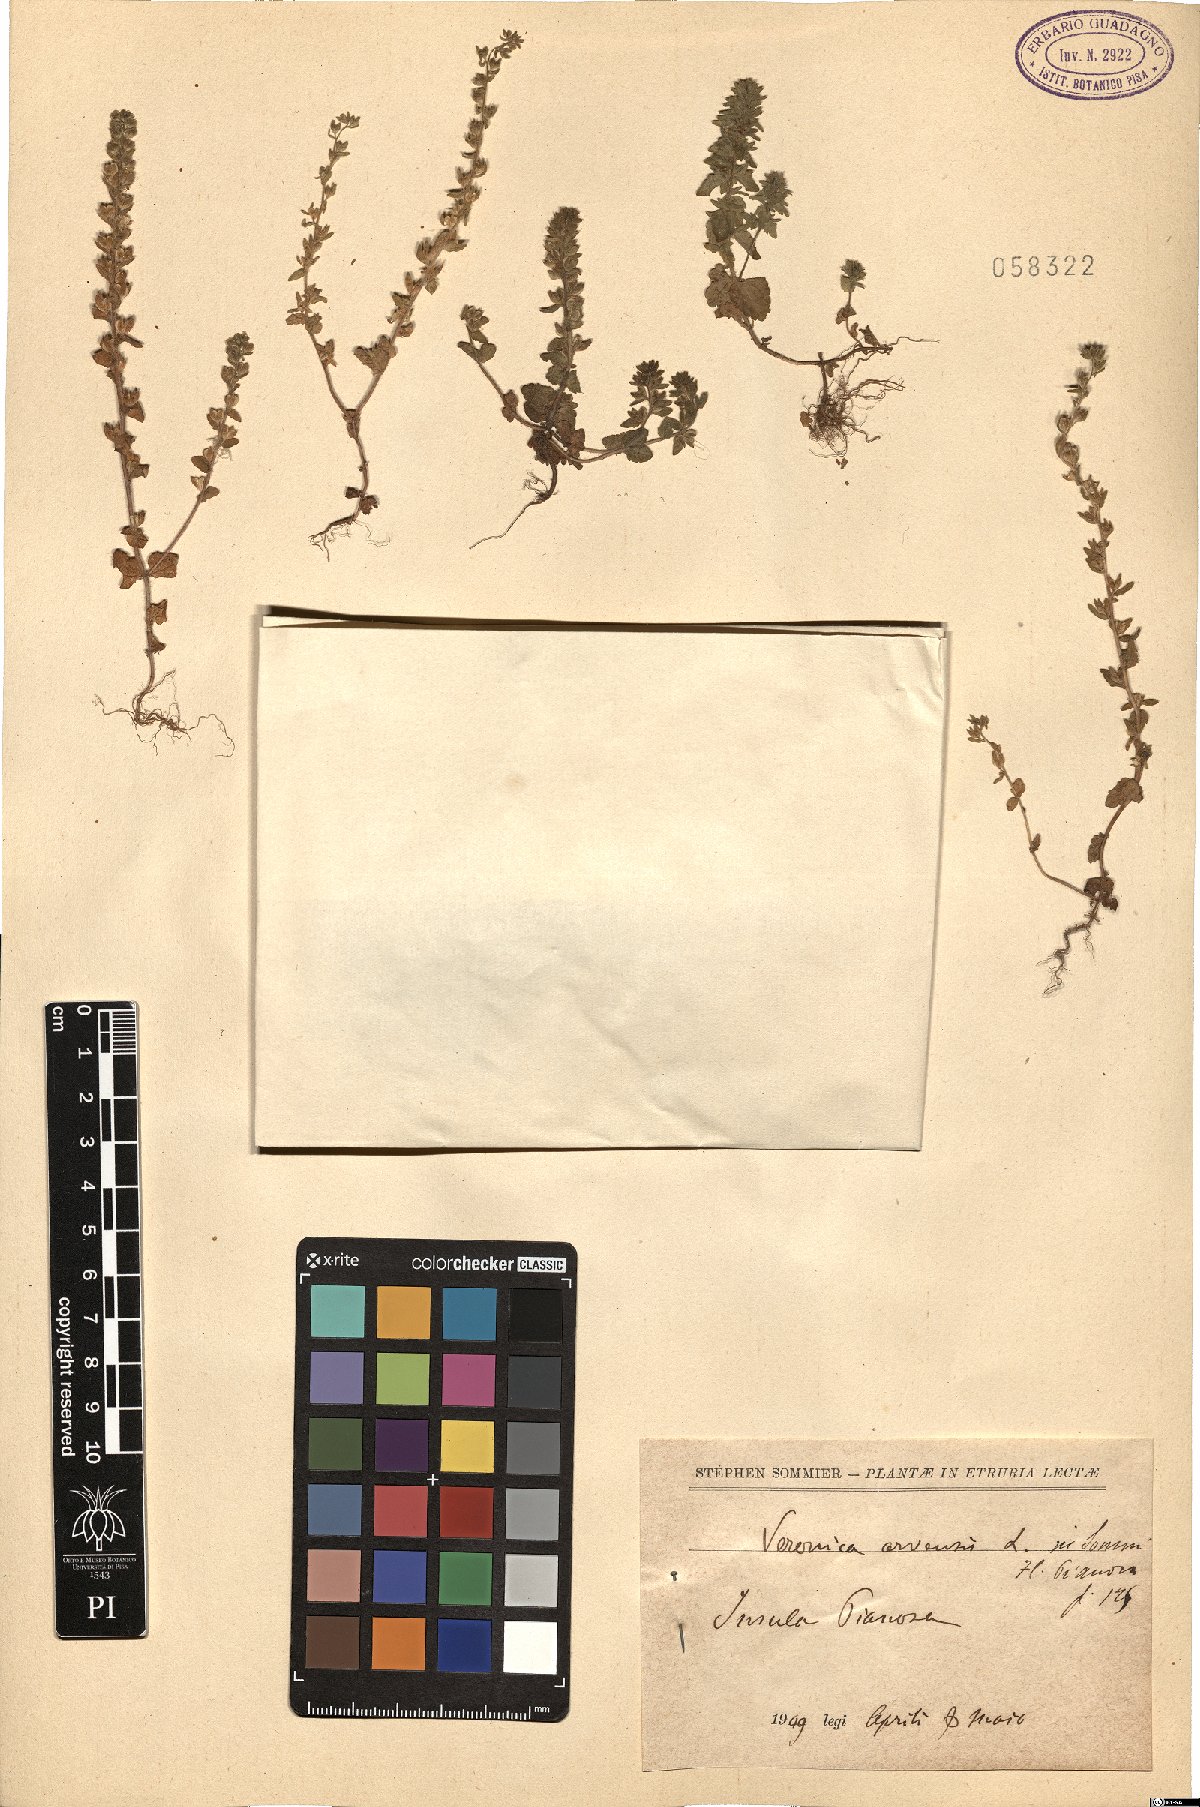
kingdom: Plantae
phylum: Tracheophyta
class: Magnoliopsida
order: Lamiales
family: Plantaginaceae
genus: Veronica
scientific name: Veronica arvensis
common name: Corn speedwell
